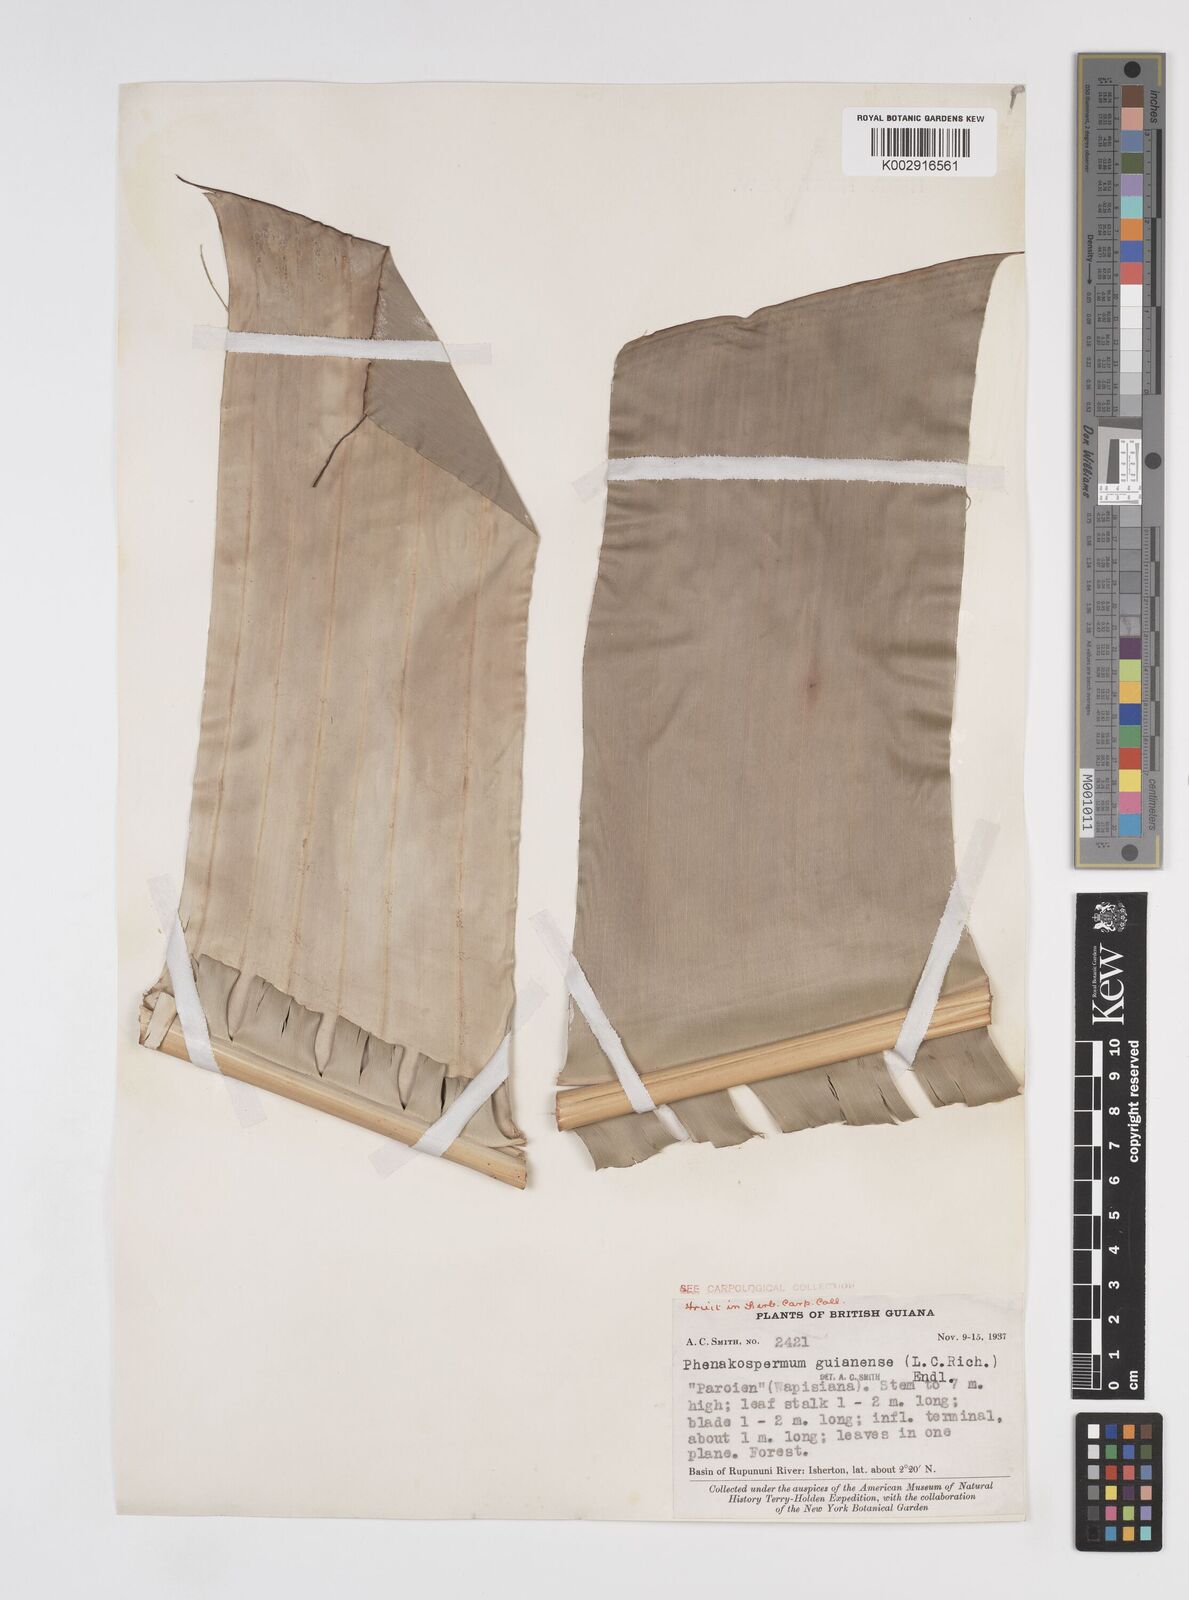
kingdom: Plantae
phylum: Tracheophyta
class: Liliopsida
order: Zingiberales
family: Strelitziaceae
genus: Phenakospermum
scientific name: Phenakospermum guyannense
